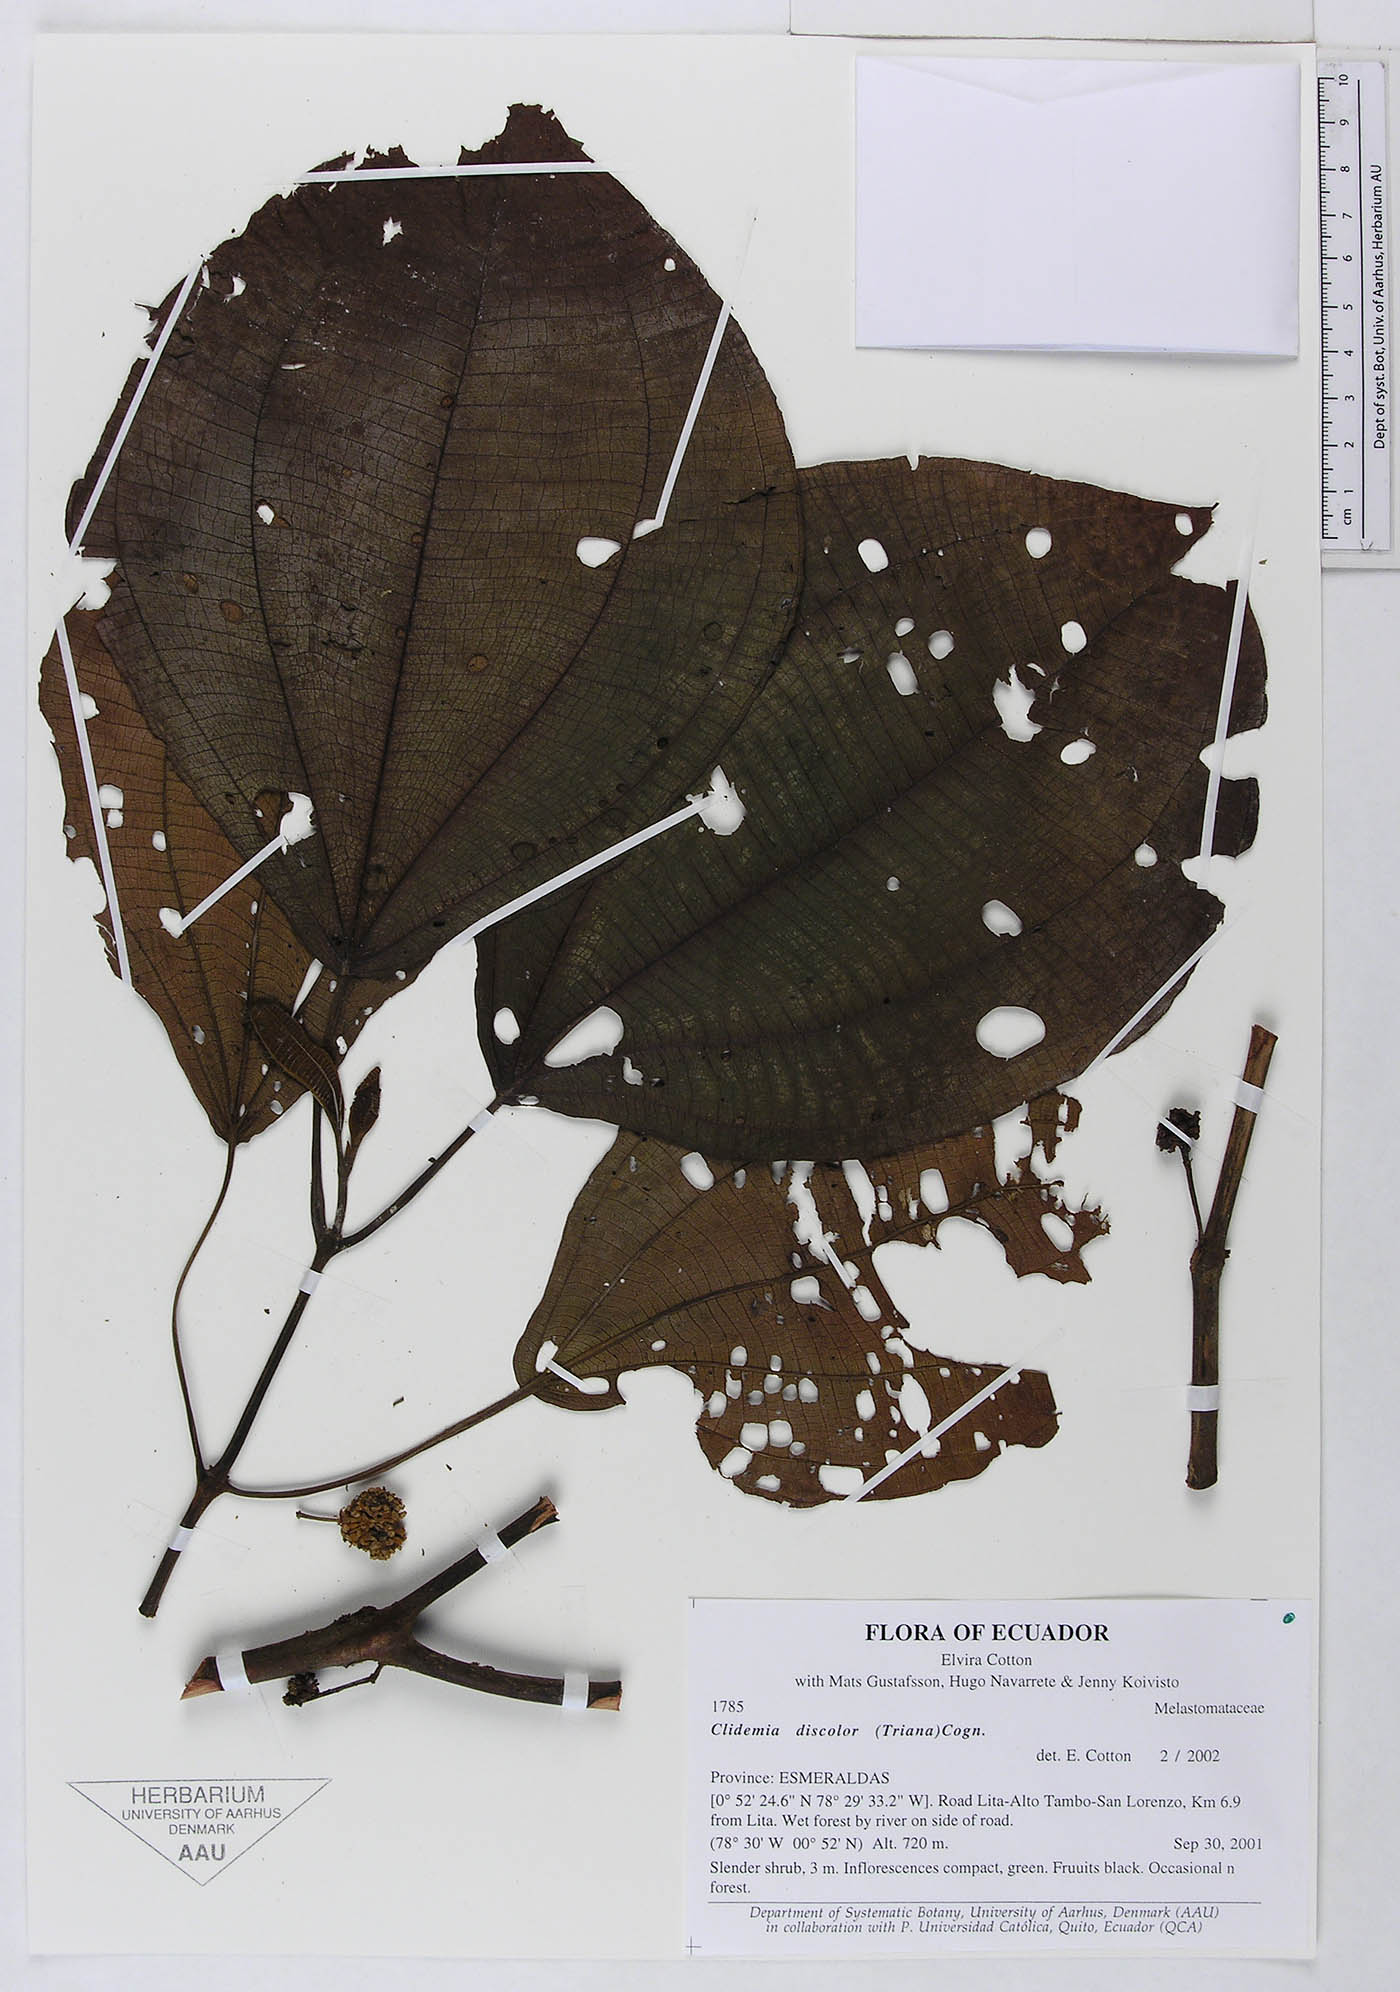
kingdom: Plantae
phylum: Tracheophyta
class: Magnoliopsida
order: Myrtales
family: Melastomataceae
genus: Miconia
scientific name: Miconia purpureoviolacea
